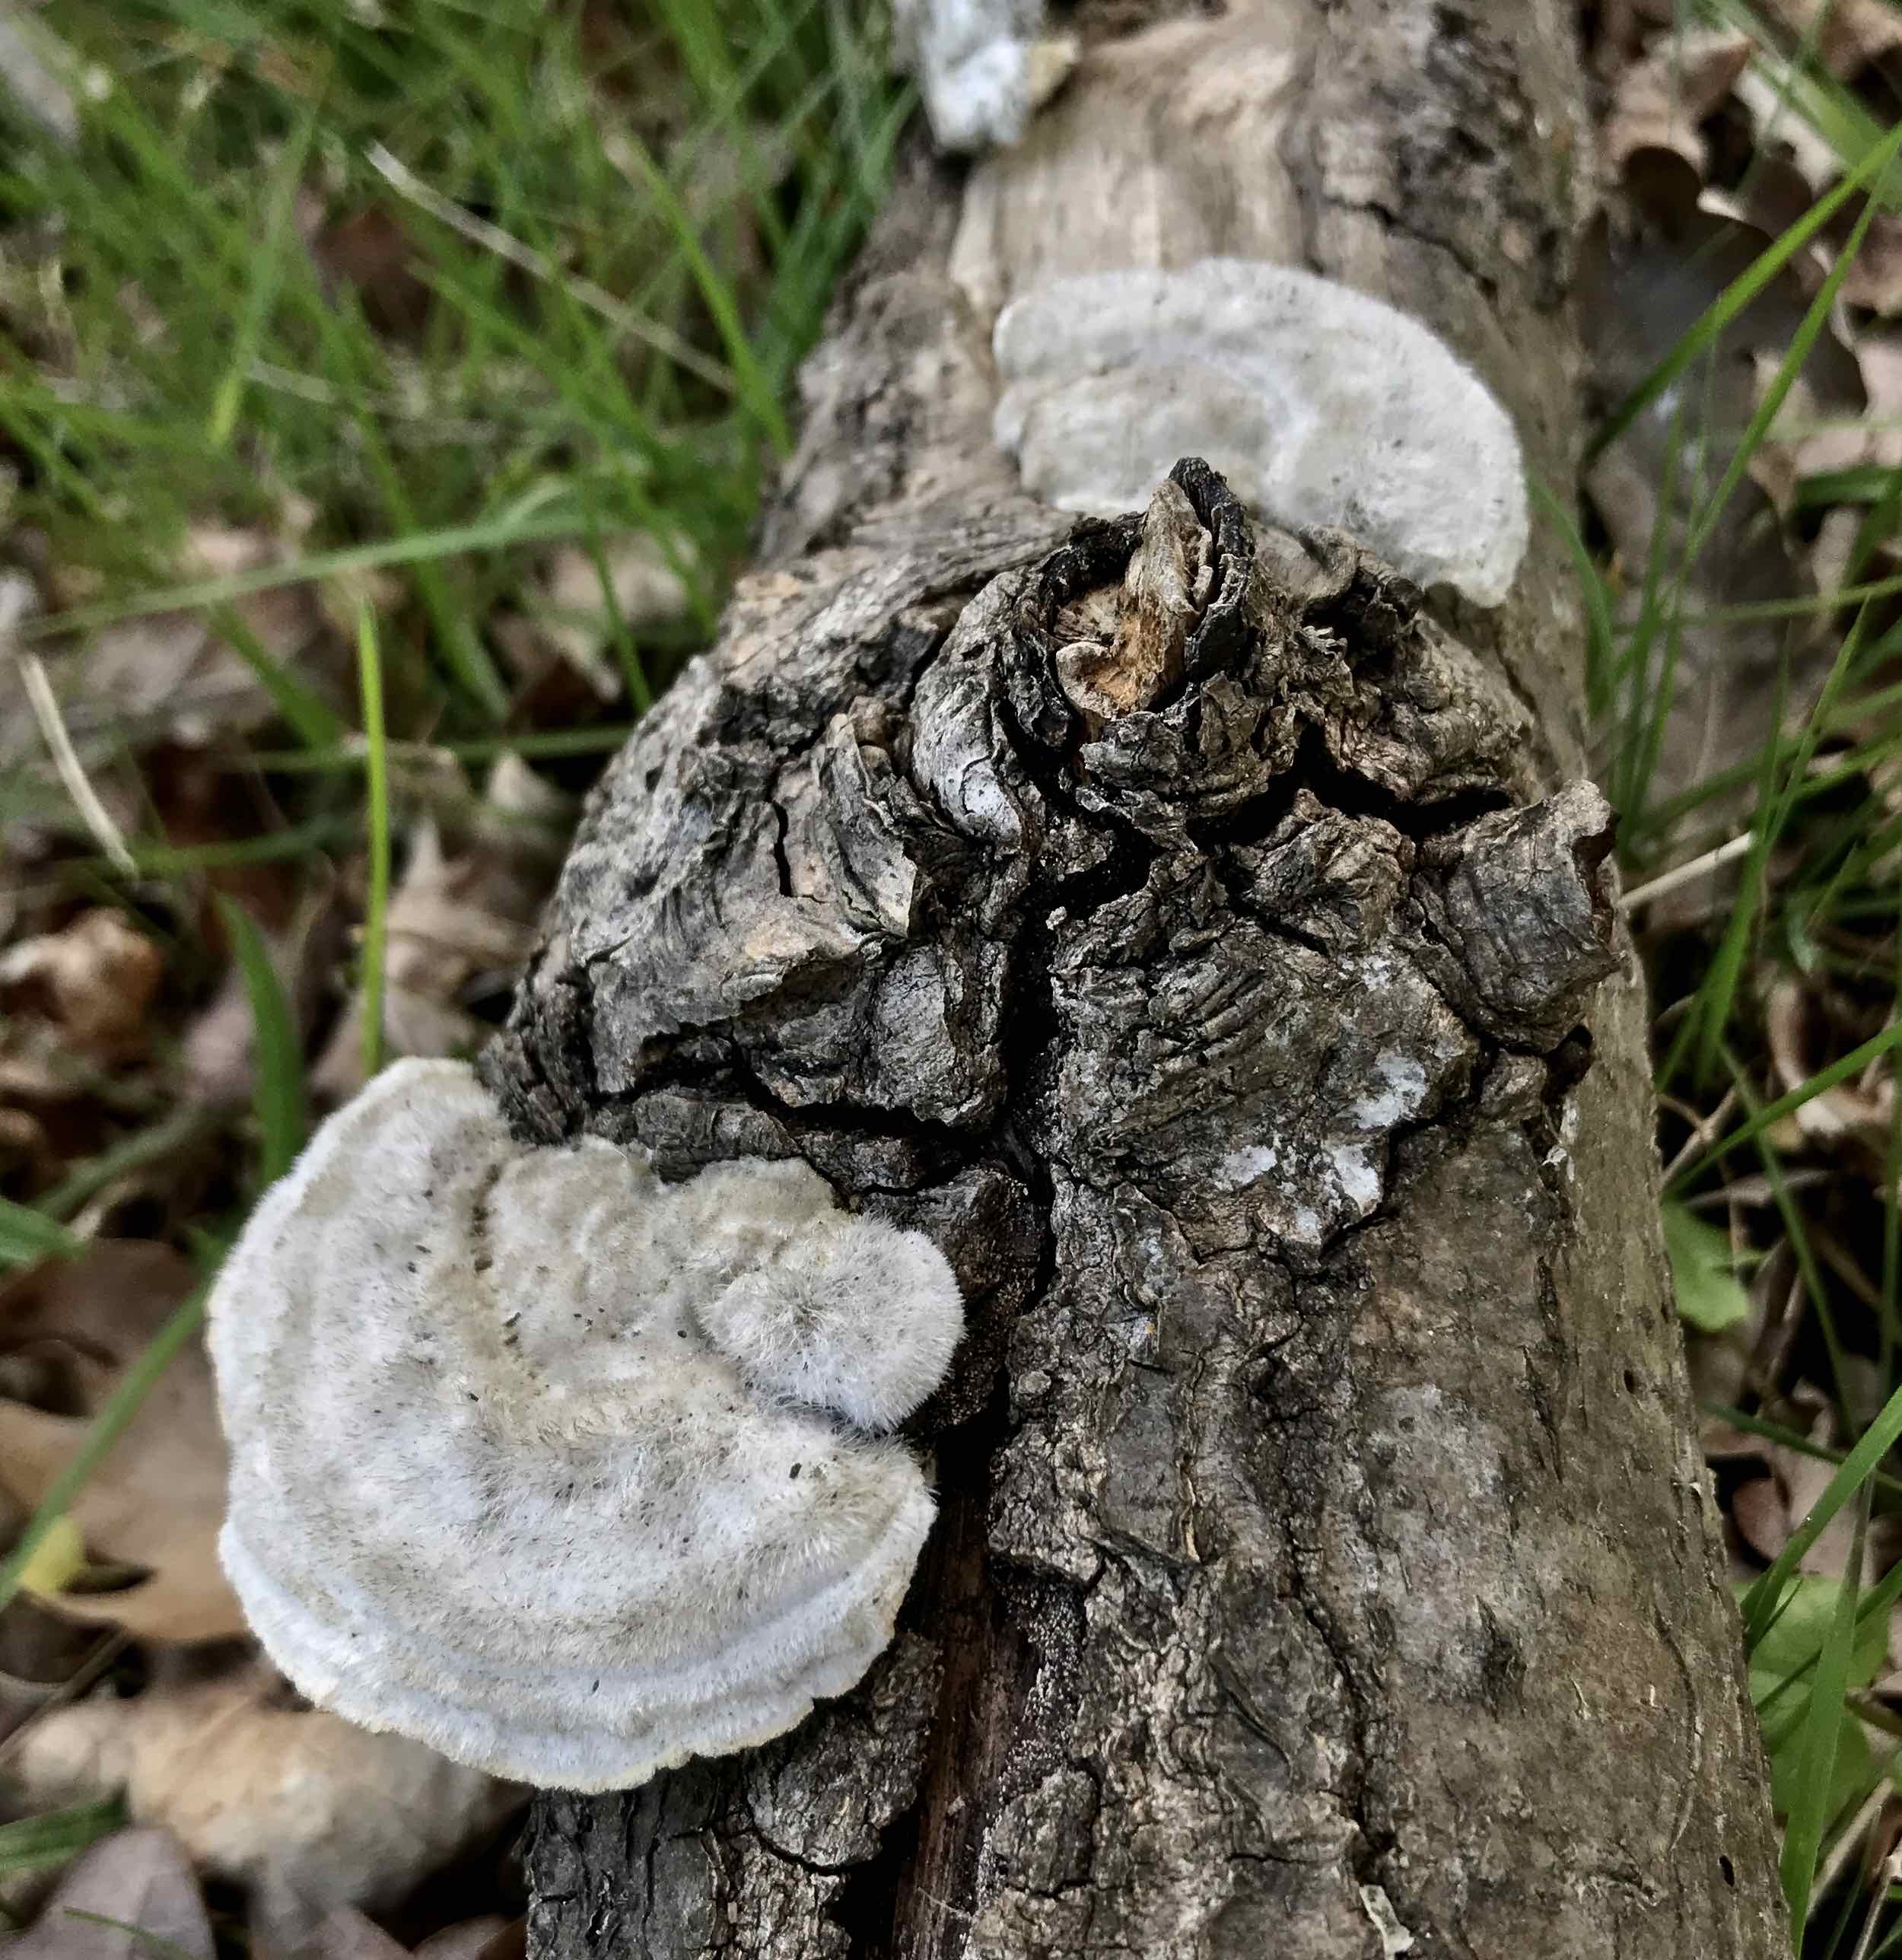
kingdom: Fungi
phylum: Basidiomycota
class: Agaricomycetes
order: Polyporales
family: Polyporaceae
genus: Trametes
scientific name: Trametes hirsuta
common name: håret læderporesvamp
